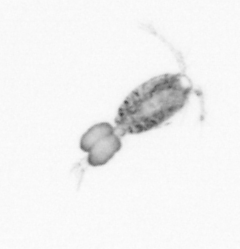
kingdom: Animalia
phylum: Arthropoda
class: Copepoda
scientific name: Copepoda
